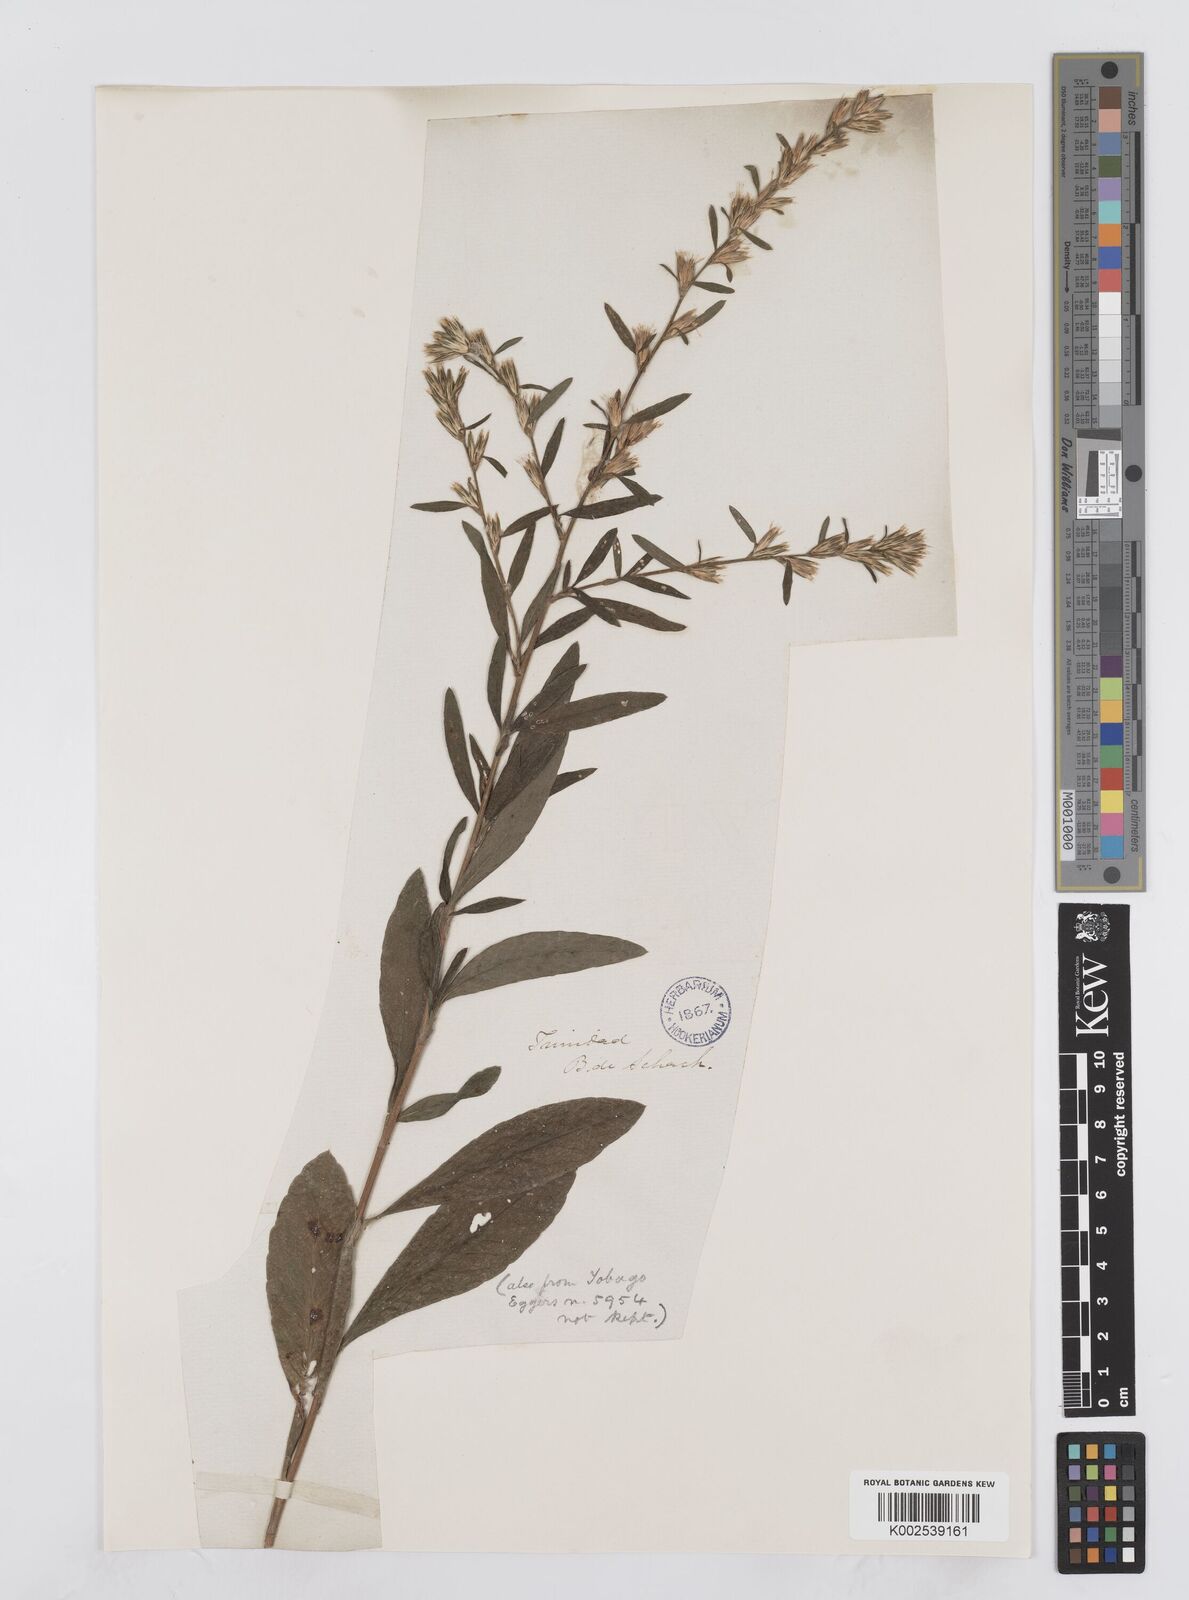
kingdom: Plantae
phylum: Tracheophyta
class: Magnoliopsida
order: Asterales
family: Asteraceae
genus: Pseudelephantopus
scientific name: Pseudelephantopus spicatus
